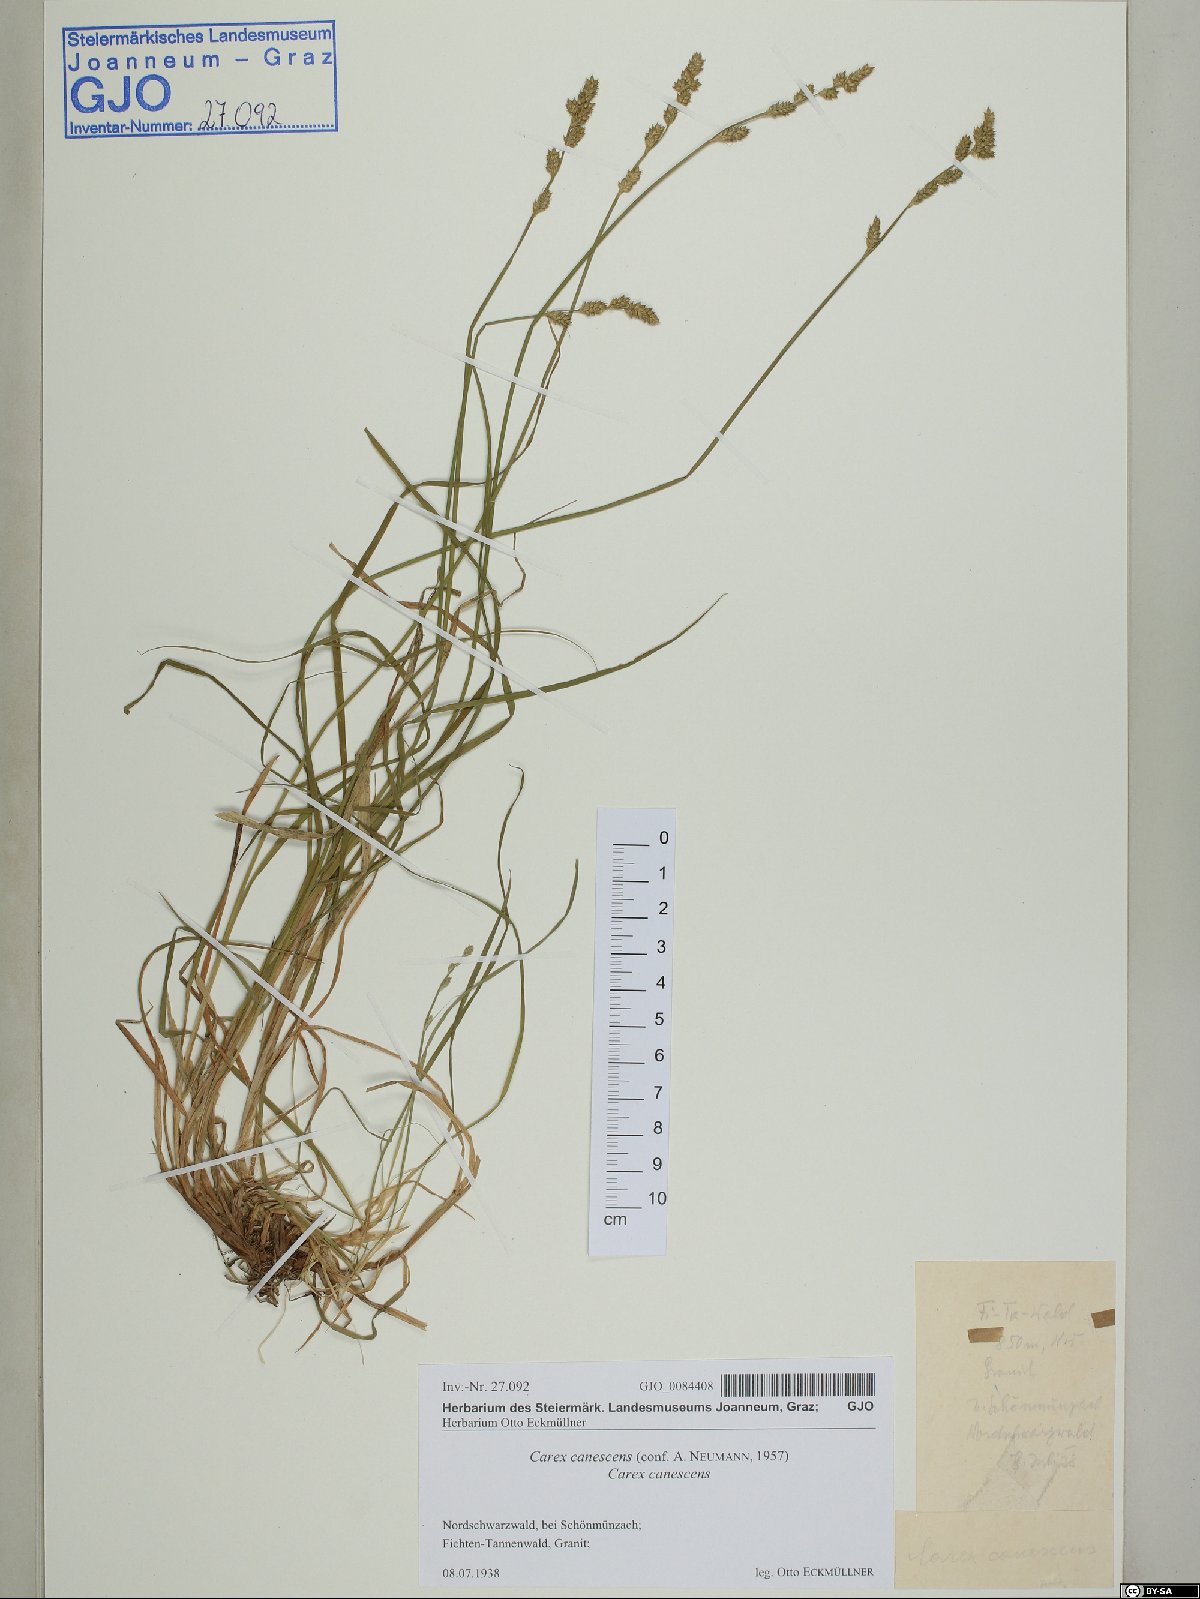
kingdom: Plantae
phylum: Tracheophyta
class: Liliopsida
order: Poales
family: Cyperaceae
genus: Carex
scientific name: Carex canescens
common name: White sedge
